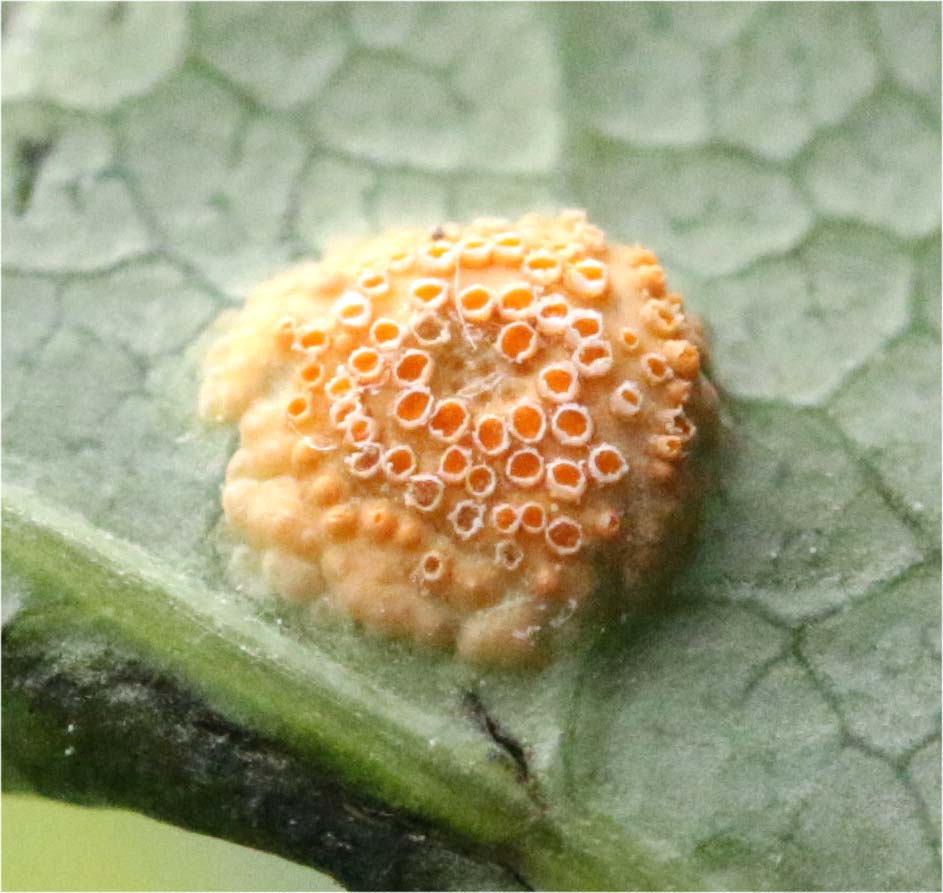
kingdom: Fungi
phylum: Basidiomycota
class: Pucciniomycetes
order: Pucciniales
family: Pucciniaceae
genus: Puccinia
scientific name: Puccinia festucae
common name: gedeblad-tvecellerust
